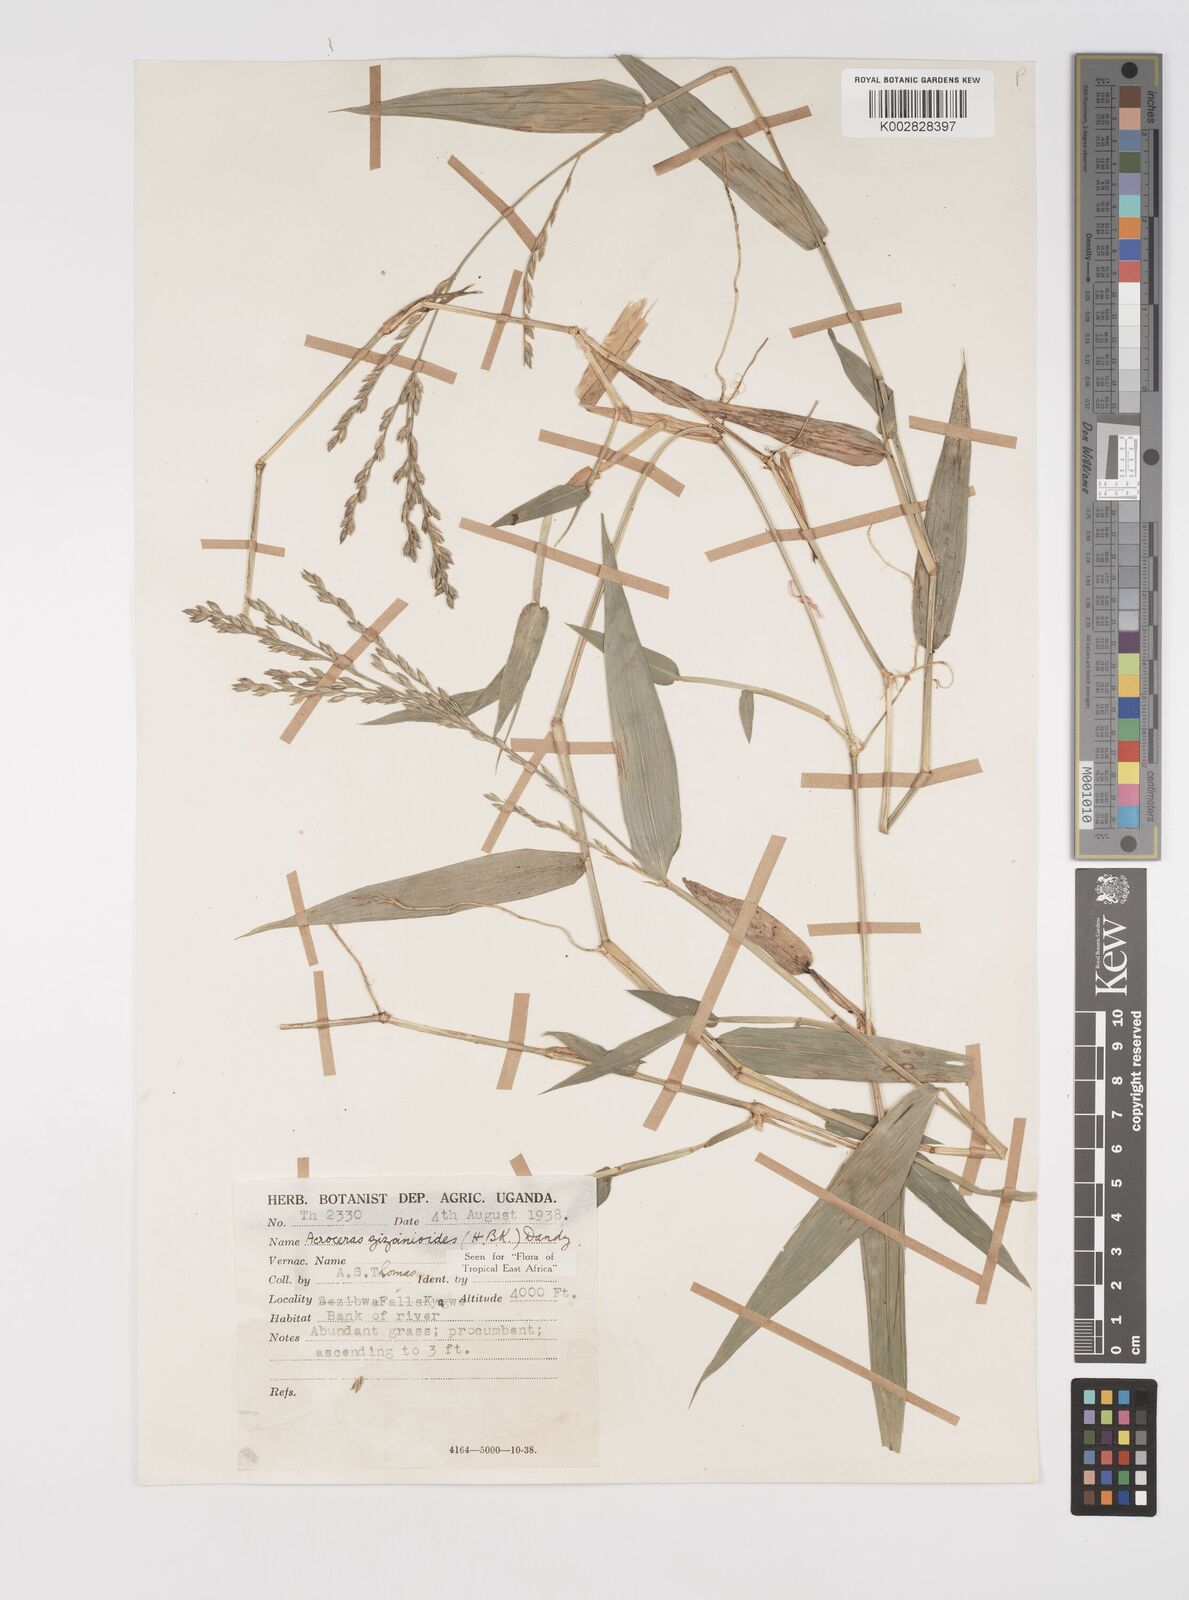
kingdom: Plantae
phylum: Tracheophyta
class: Liliopsida
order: Poales
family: Poaceae
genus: Acroceras
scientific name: Acroceras zizanioides
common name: Oat grass
